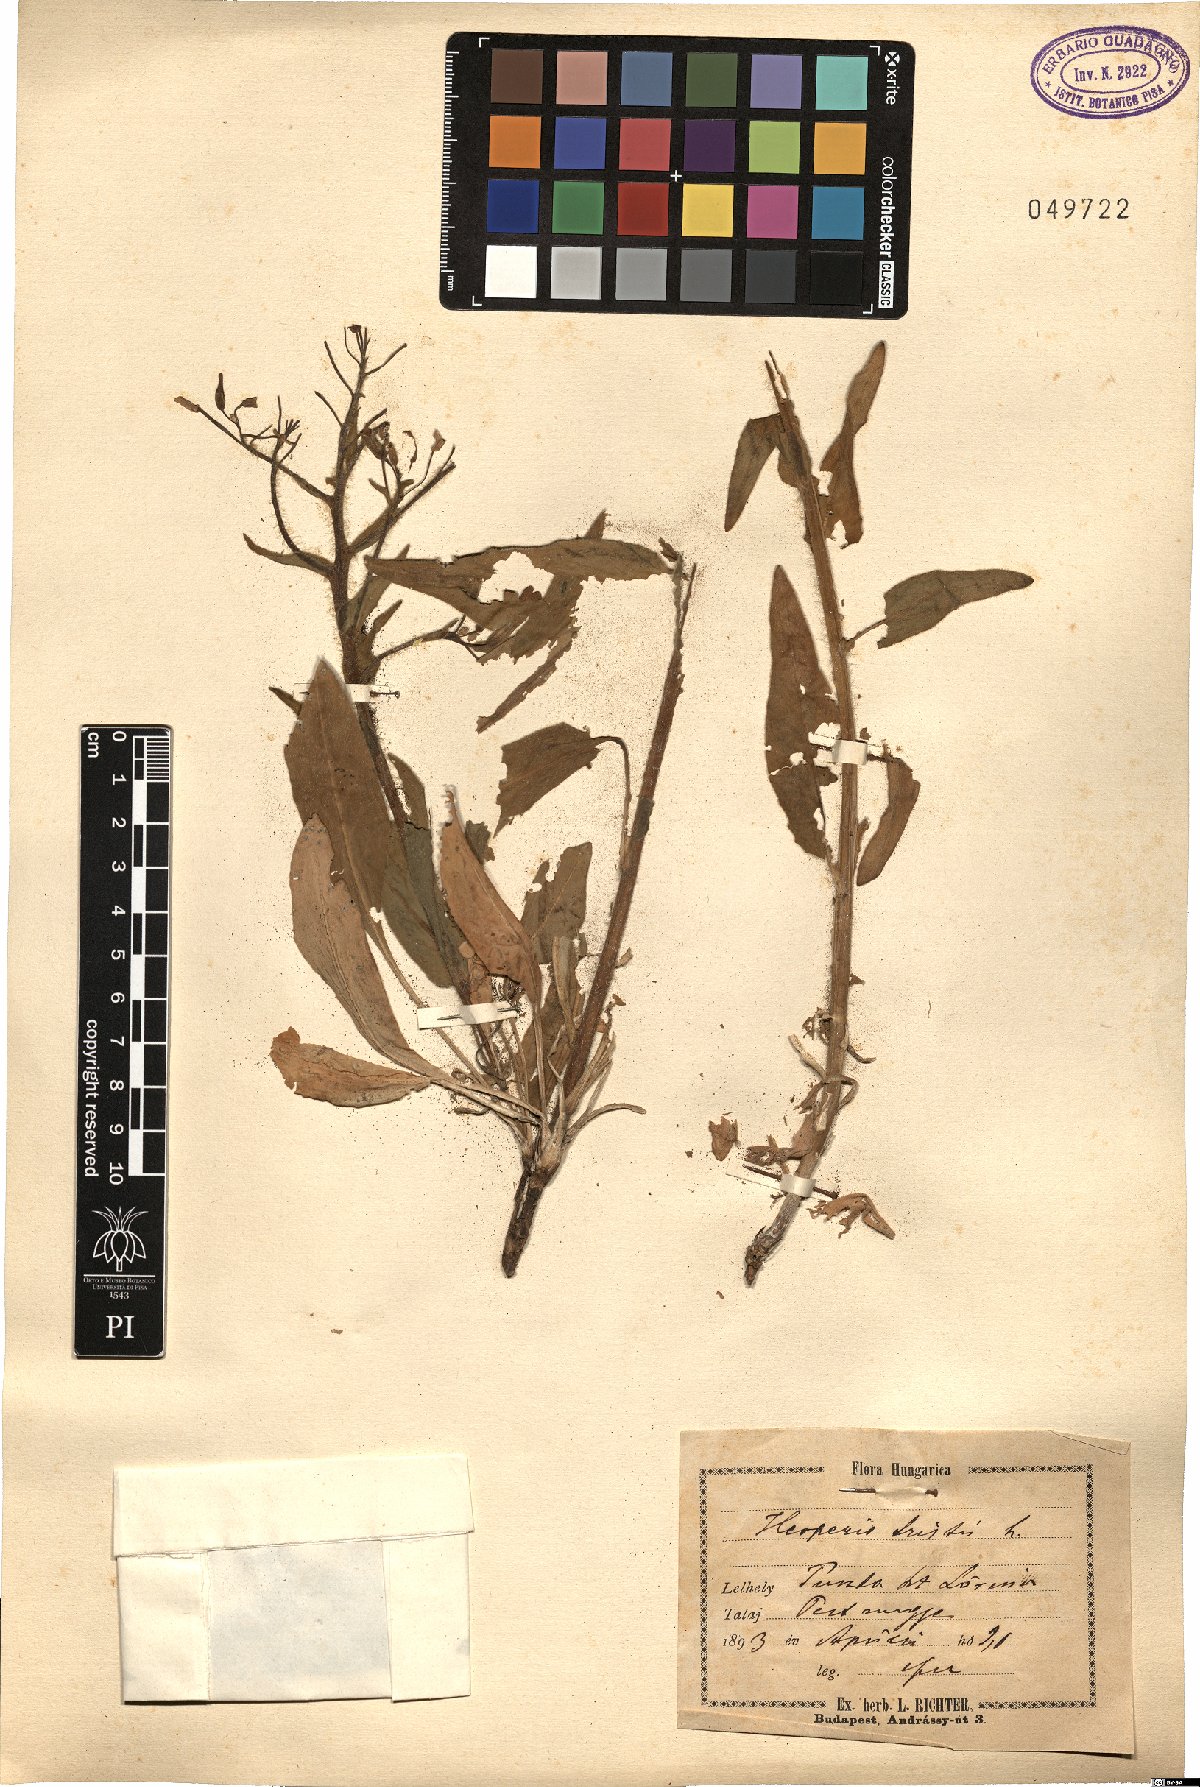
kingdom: Plantae
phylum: Tracheophyta
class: Magnoliopsida
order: Brassicales
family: Brassicaceae
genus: Hesperis
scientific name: Hesperis tristis
